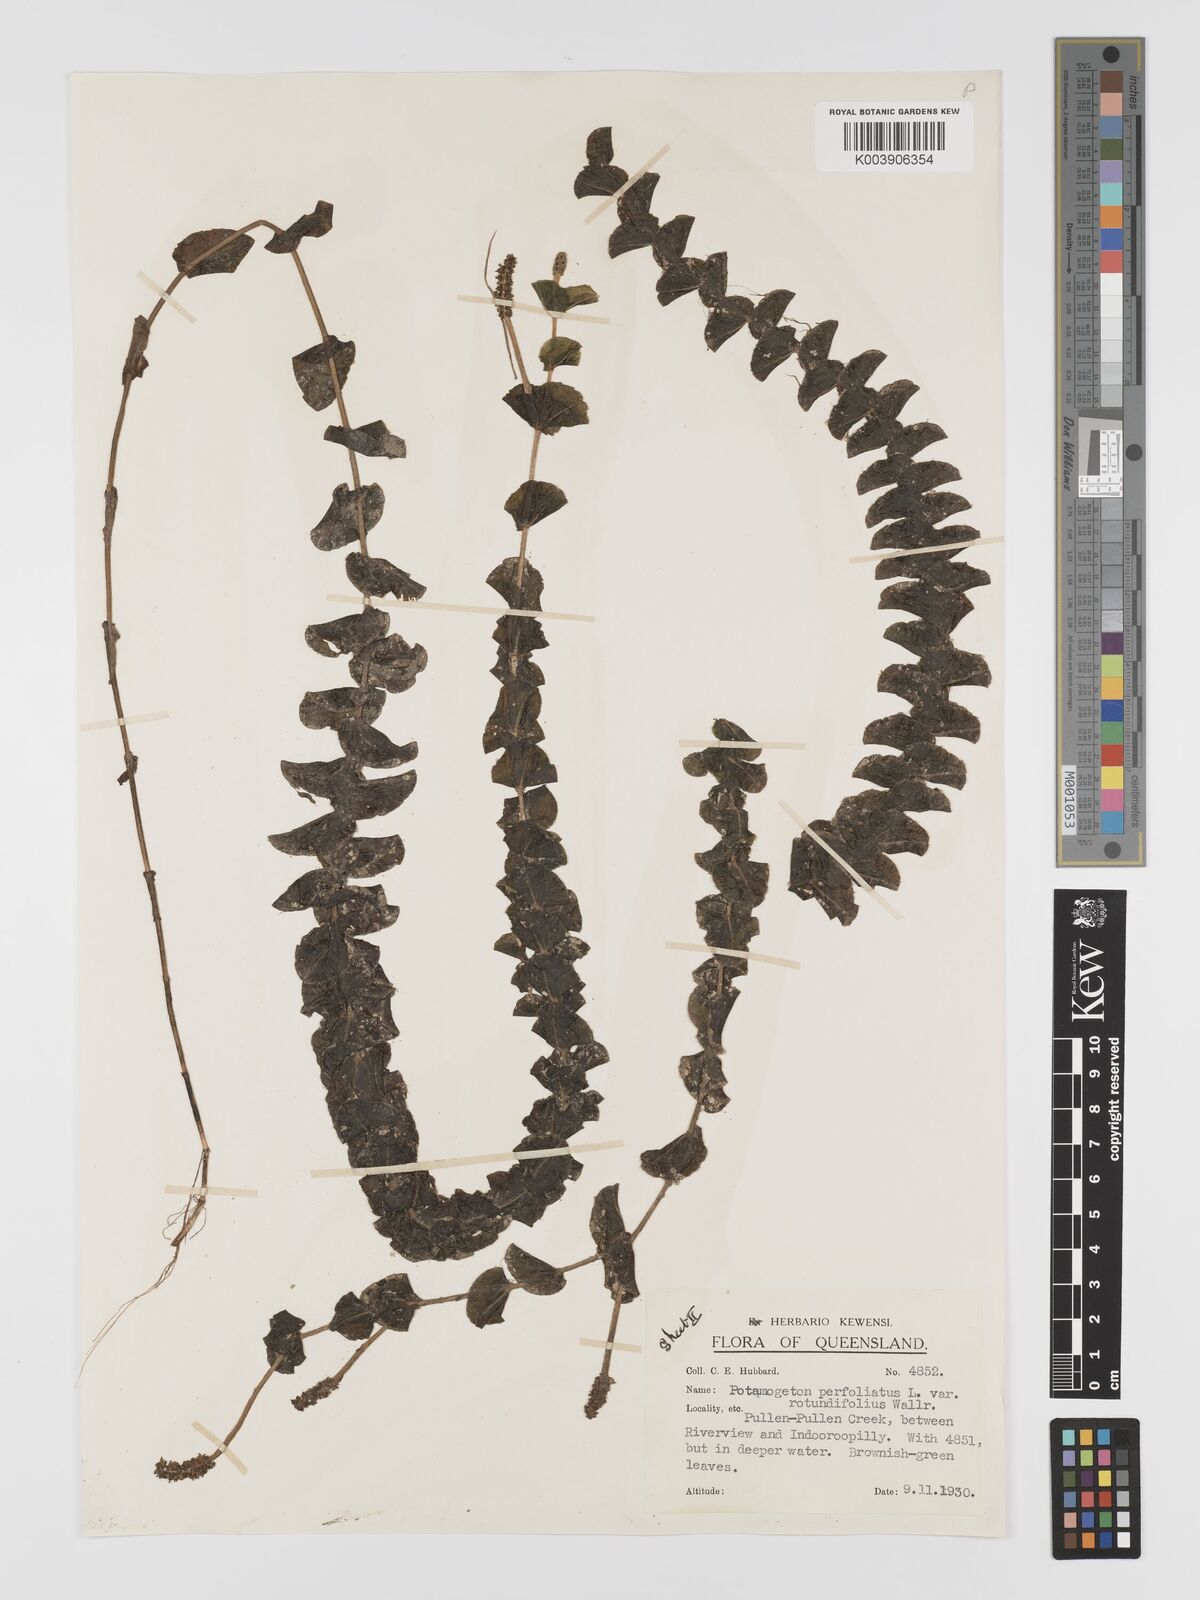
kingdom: Plantae
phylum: Tracheophyta
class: Liliopsida
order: Alismatales
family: Potamogetonaceae
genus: Potamogeton
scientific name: Potamogeton perfoliatus
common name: Perfoliate pondweed
